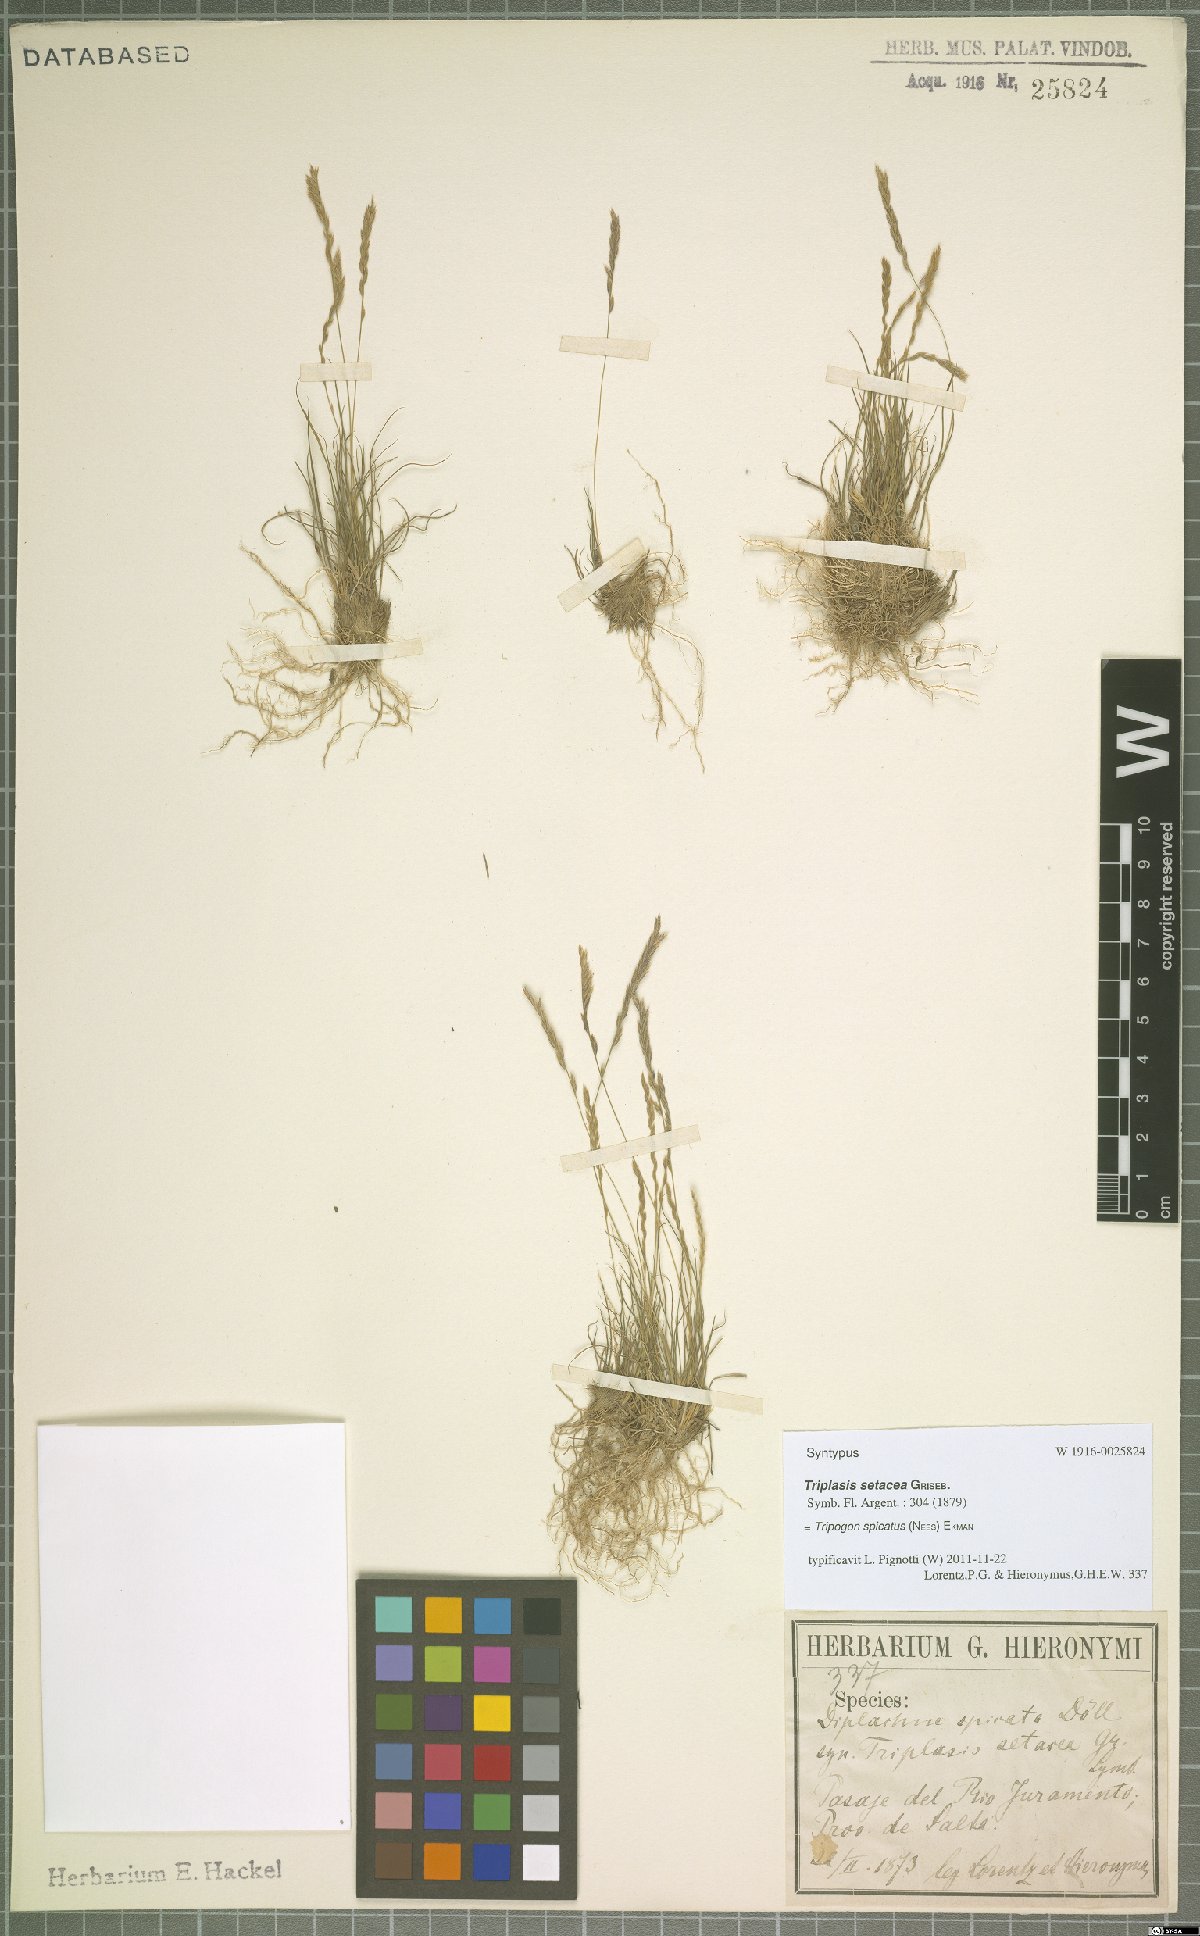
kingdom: Plantae
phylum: Tracheophyta
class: Liliopsida
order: Poales
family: Poaceae
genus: Tripogonella
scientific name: Tripogonella spicata
